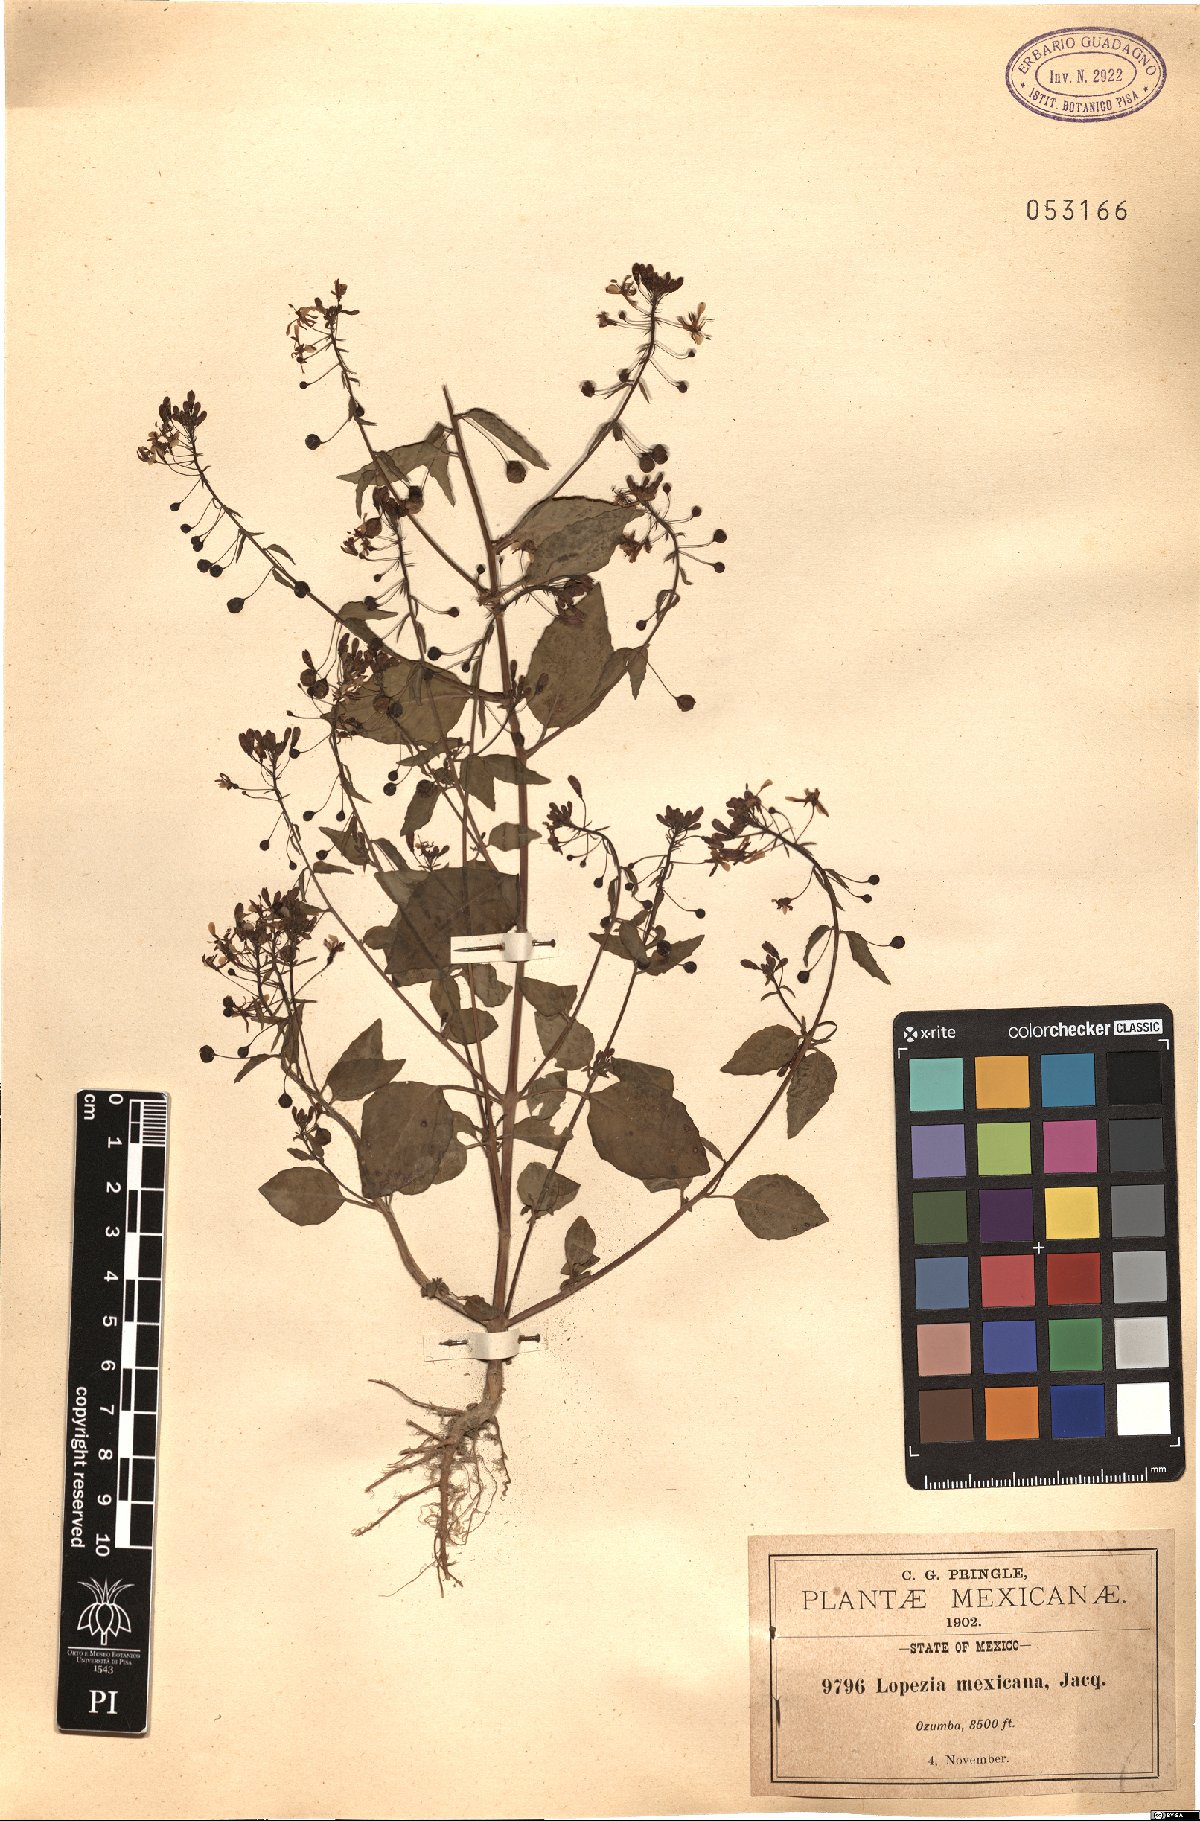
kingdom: Plantae
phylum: Tracheophyta
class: Magnoliopsida
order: Myrtales
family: Onagraceae
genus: Lopezia
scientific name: Lopezia racemosa
